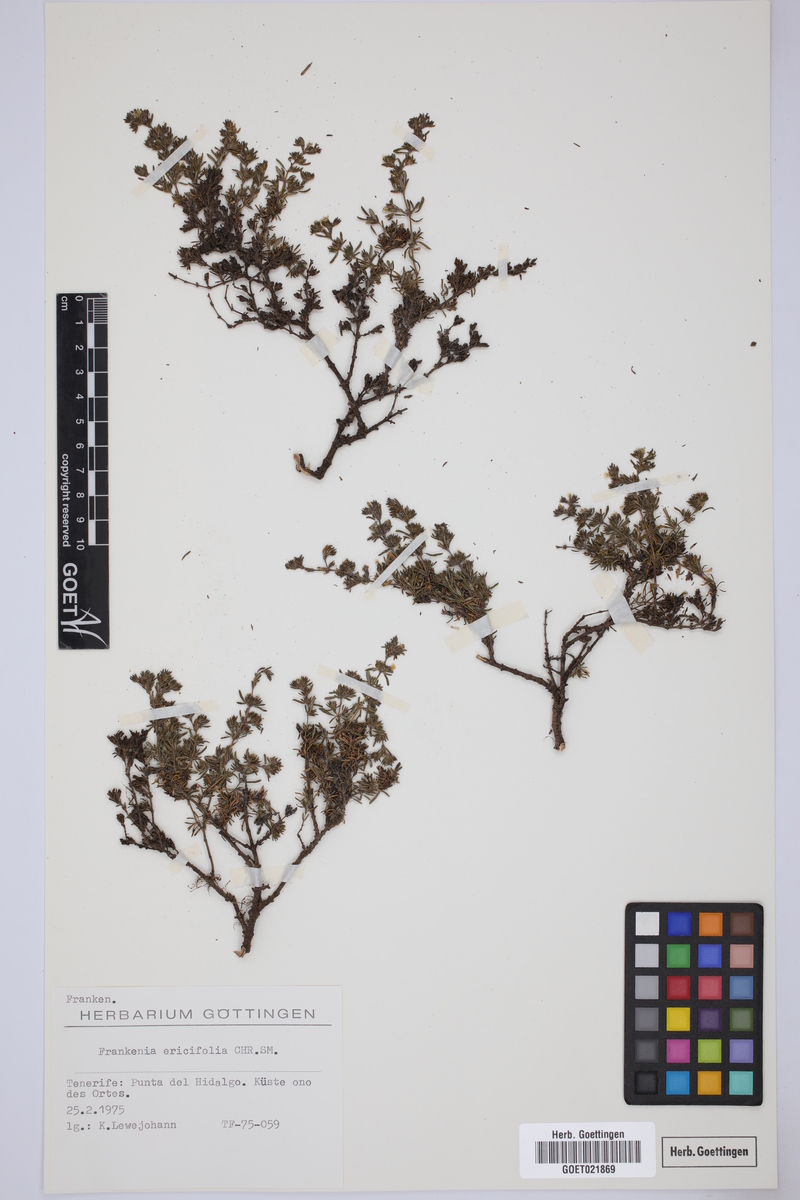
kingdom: Plantae
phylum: Tracheophyta
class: Magnoliopsida
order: Caryophyllales
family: Frankeniaceae
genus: Frankenia
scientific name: Frankenia ericifolia
